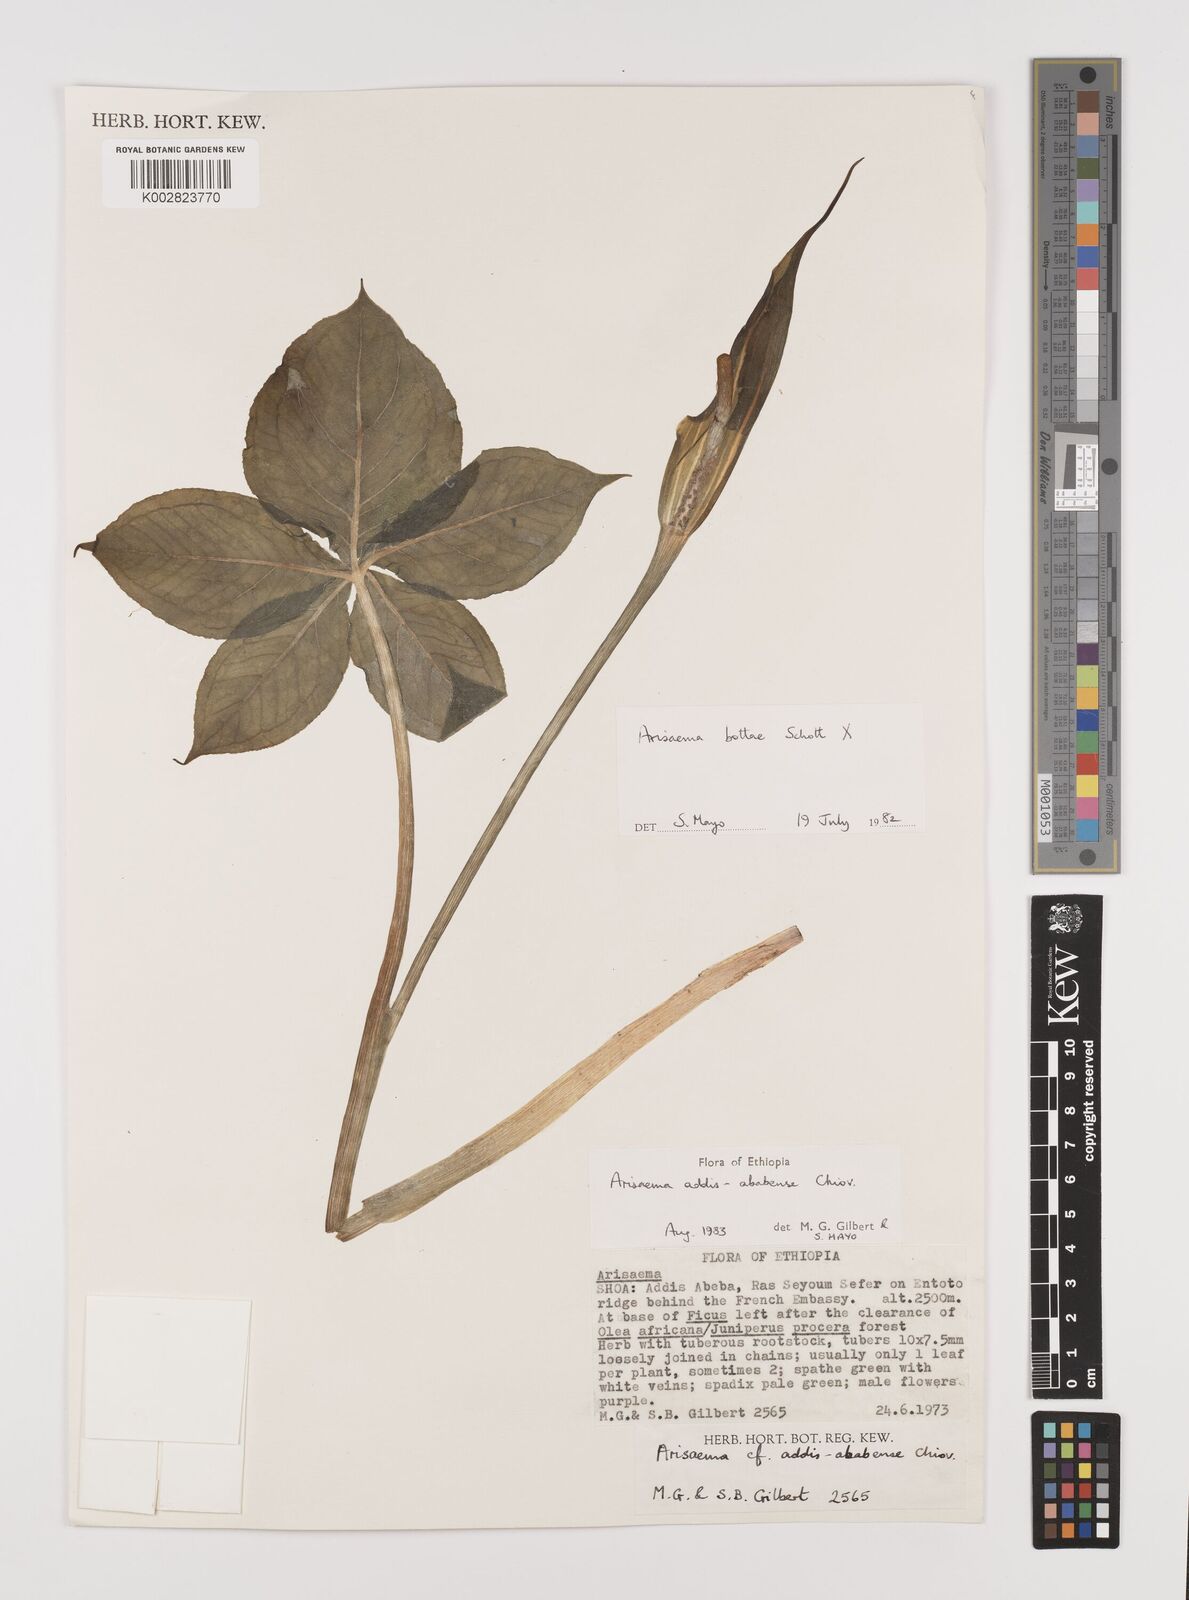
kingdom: Plantae
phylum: Tracheophyta
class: Liliopsida
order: Alismatales
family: Araceae
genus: Arisaema
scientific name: Arisaema schimperianum
